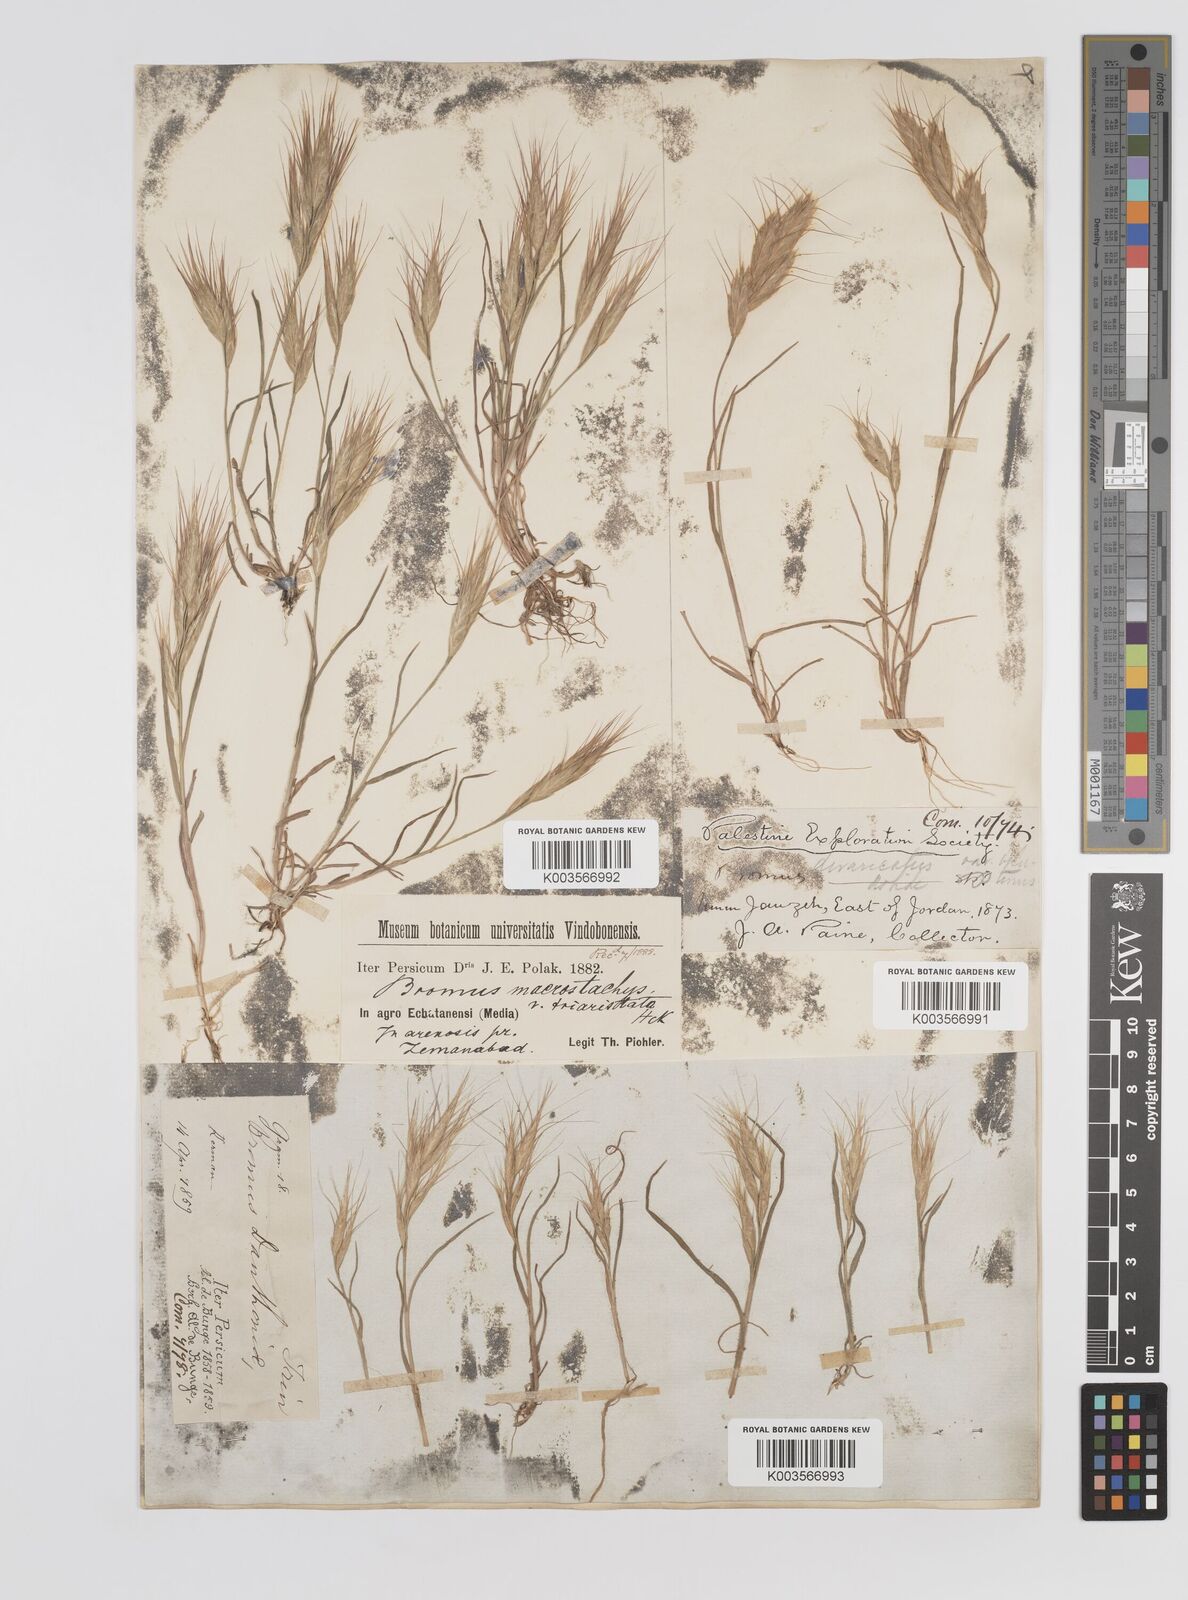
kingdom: Plantae
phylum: Tracheophyta
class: Liliopsida
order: Poales
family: Poaceae
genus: Bromus
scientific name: Bromus danthoniae
